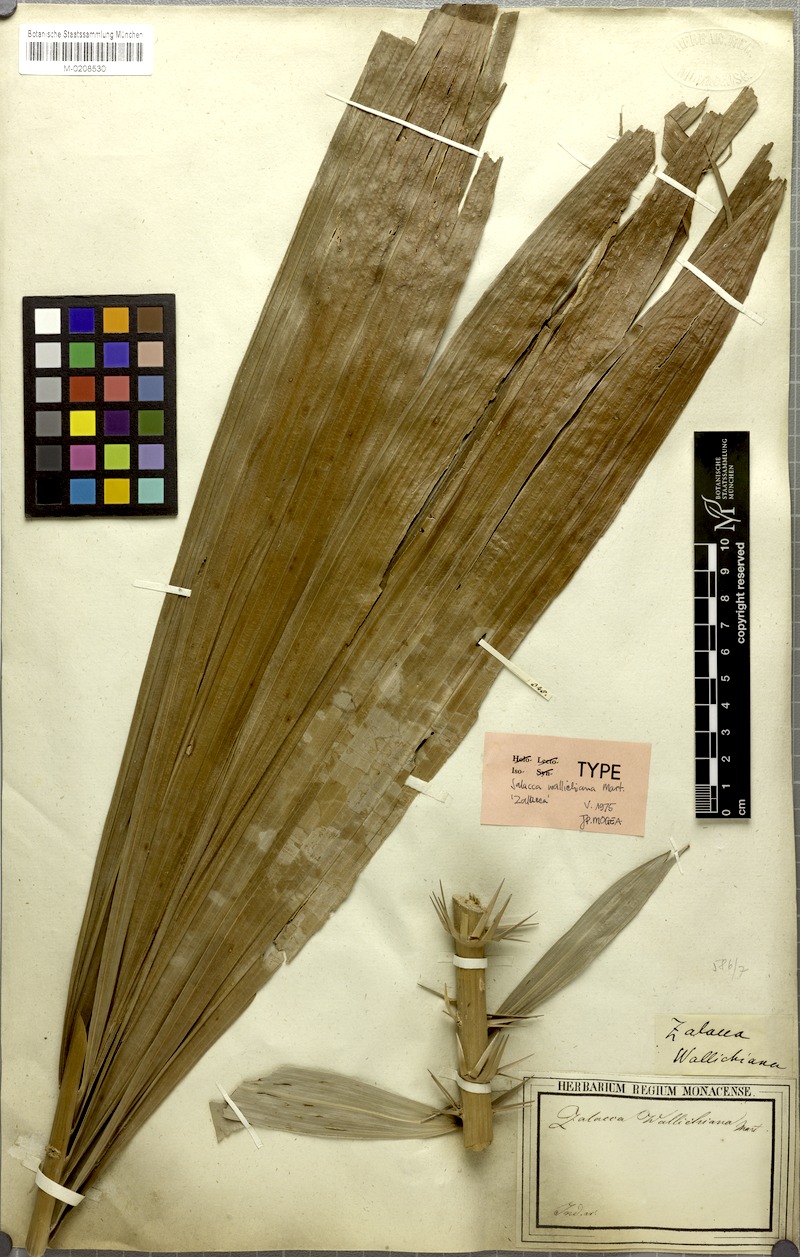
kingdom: Plantae
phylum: Tracheophyta
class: Liliopsida
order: Arecales
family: Arecaceae
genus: Salacca
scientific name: Salacca wallichiana
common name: Rakum palm
